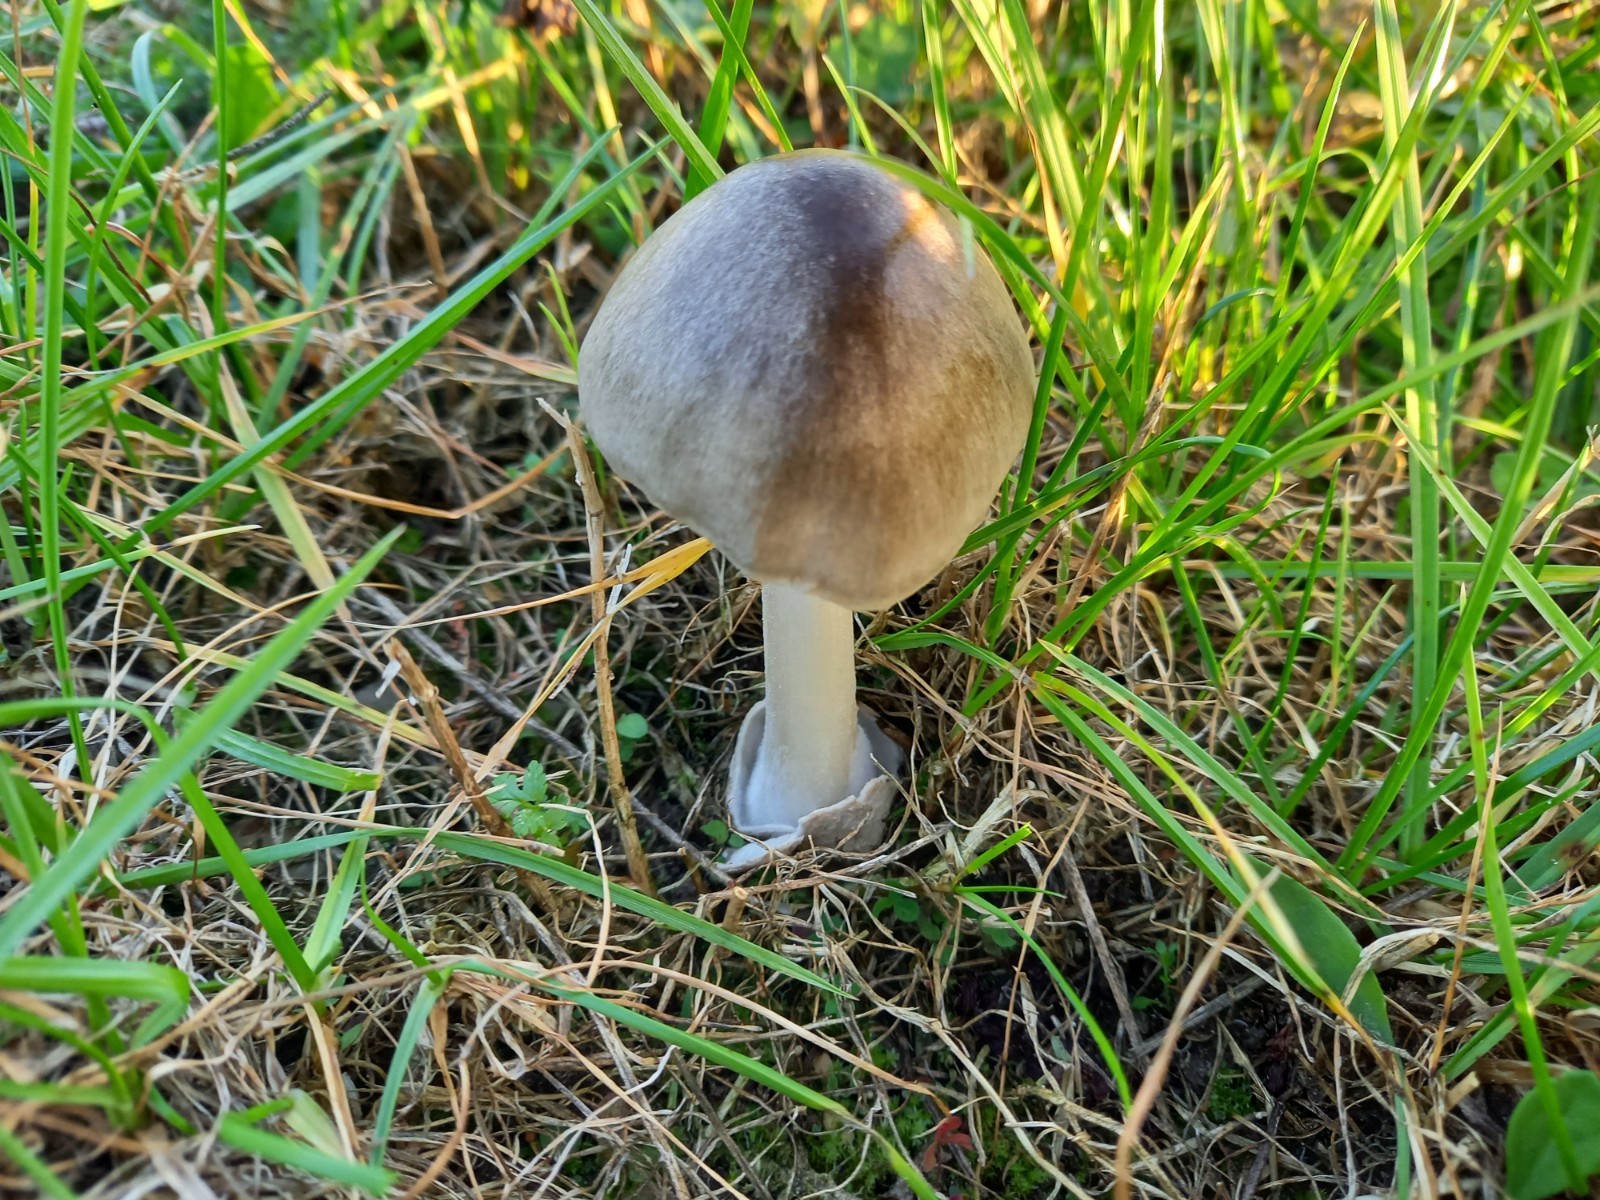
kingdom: Fungi
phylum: Basidiomycota
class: Agaricomycetes
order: Agaricales
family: Pluteaceae
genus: Volvopluteus
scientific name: Volvopluteus gloiocephalus
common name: høj posesvamp
